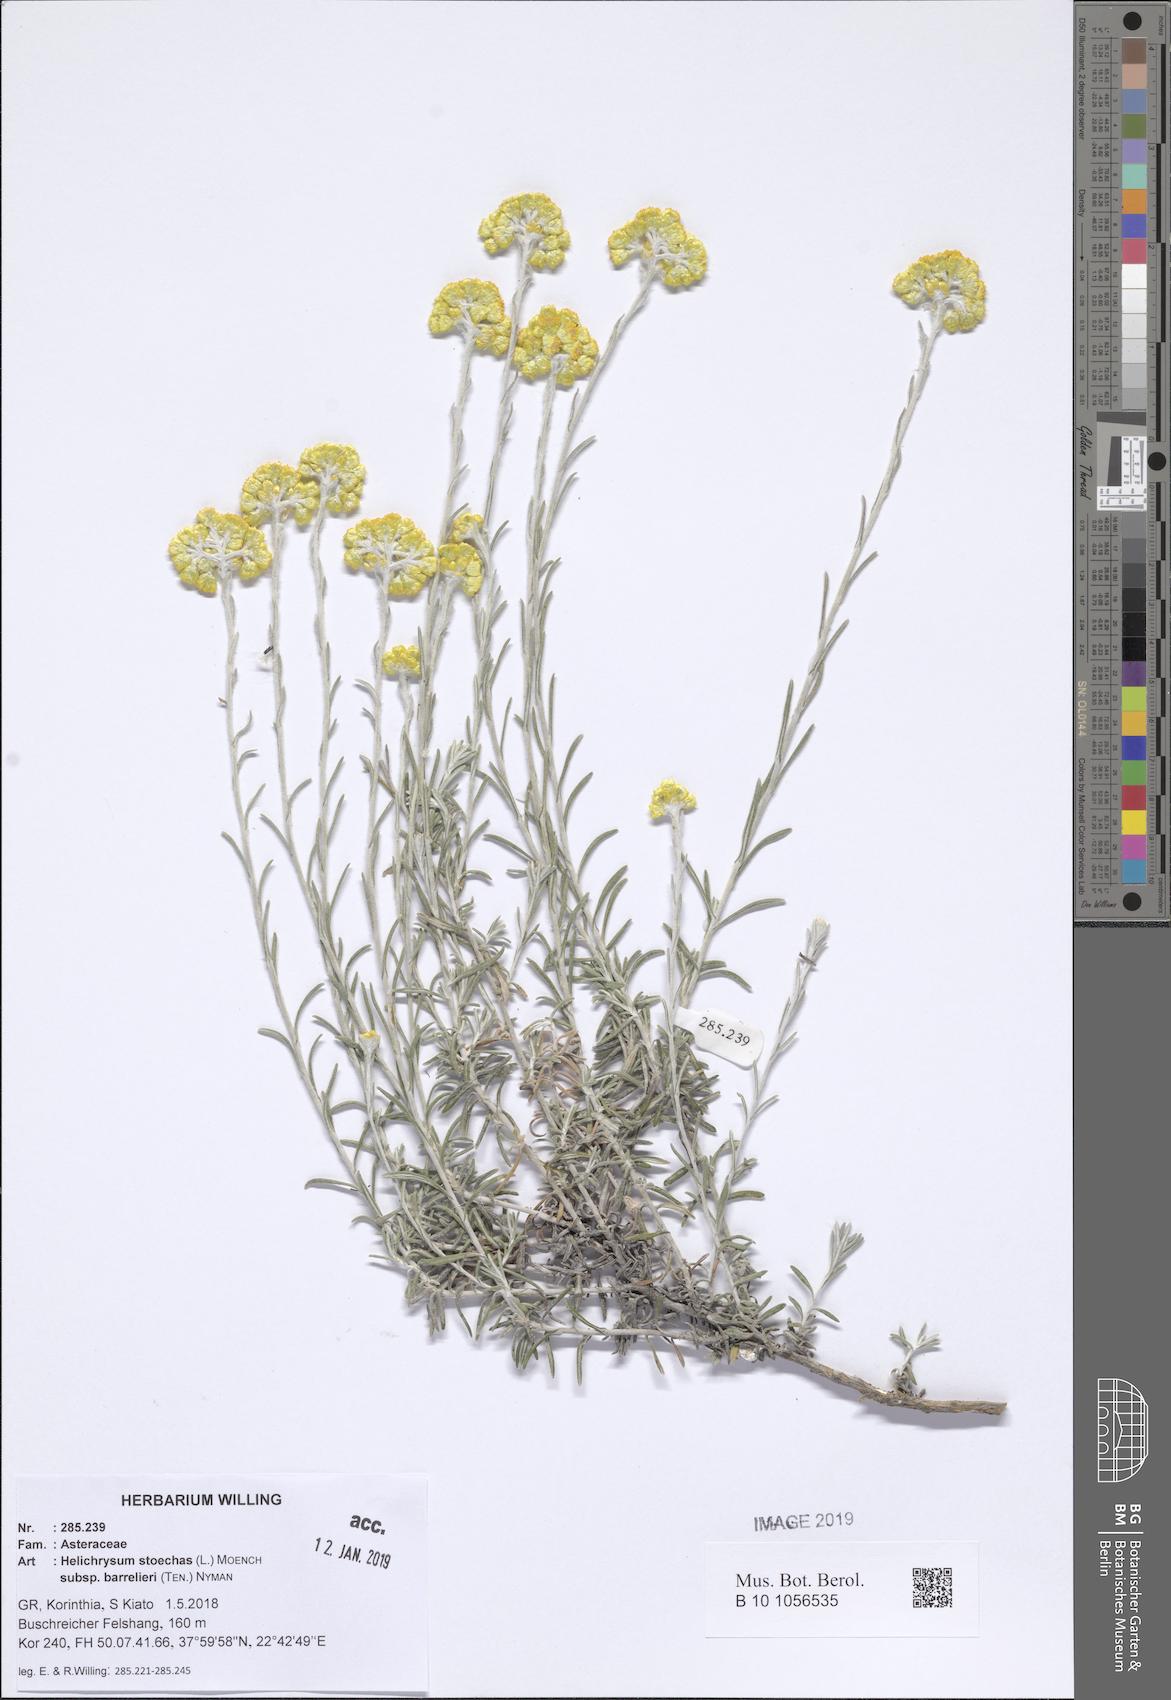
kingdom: Plantae
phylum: Tracheophyta
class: Magnoliopsida
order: Asterales
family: Asteraceae
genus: Helichrysum
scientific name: Helichrysum stoechas
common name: Goldilocks
